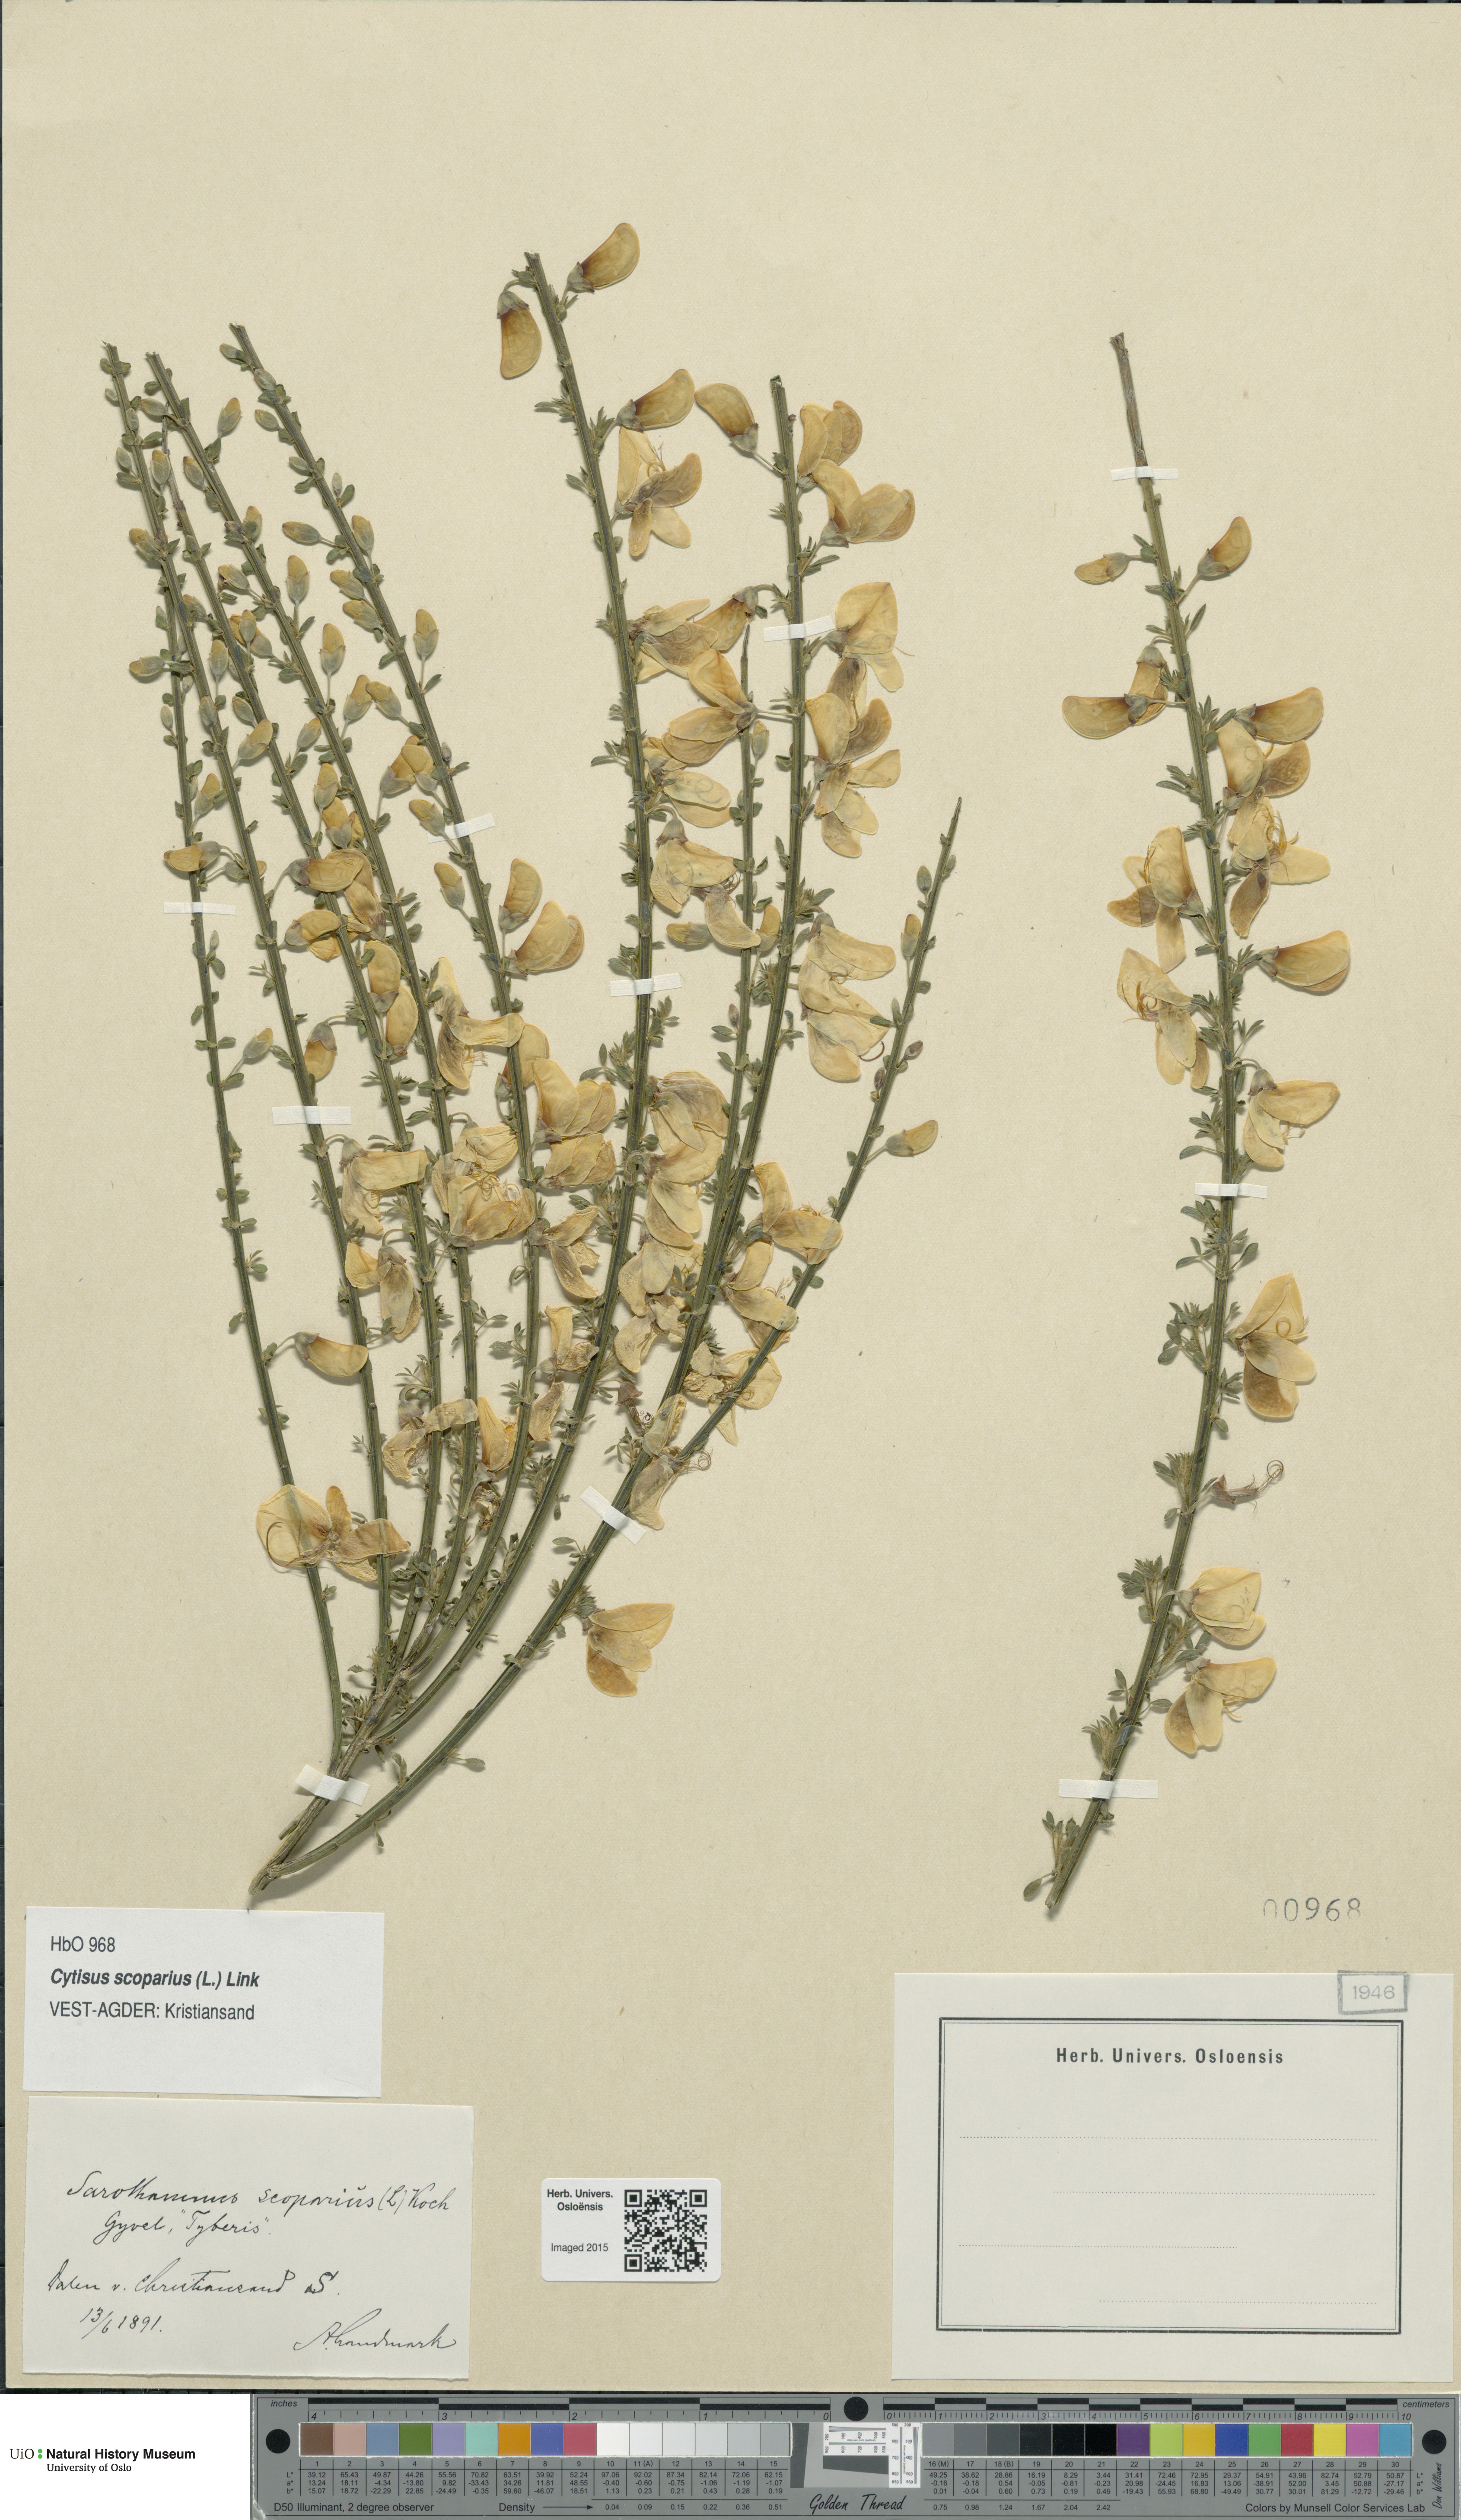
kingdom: Plantae
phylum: Tracheophyta
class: Magnoliopsida
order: Fabales
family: Fabaceae
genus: Cytisus
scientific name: Cytisus scoparius
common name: Scotch broom
